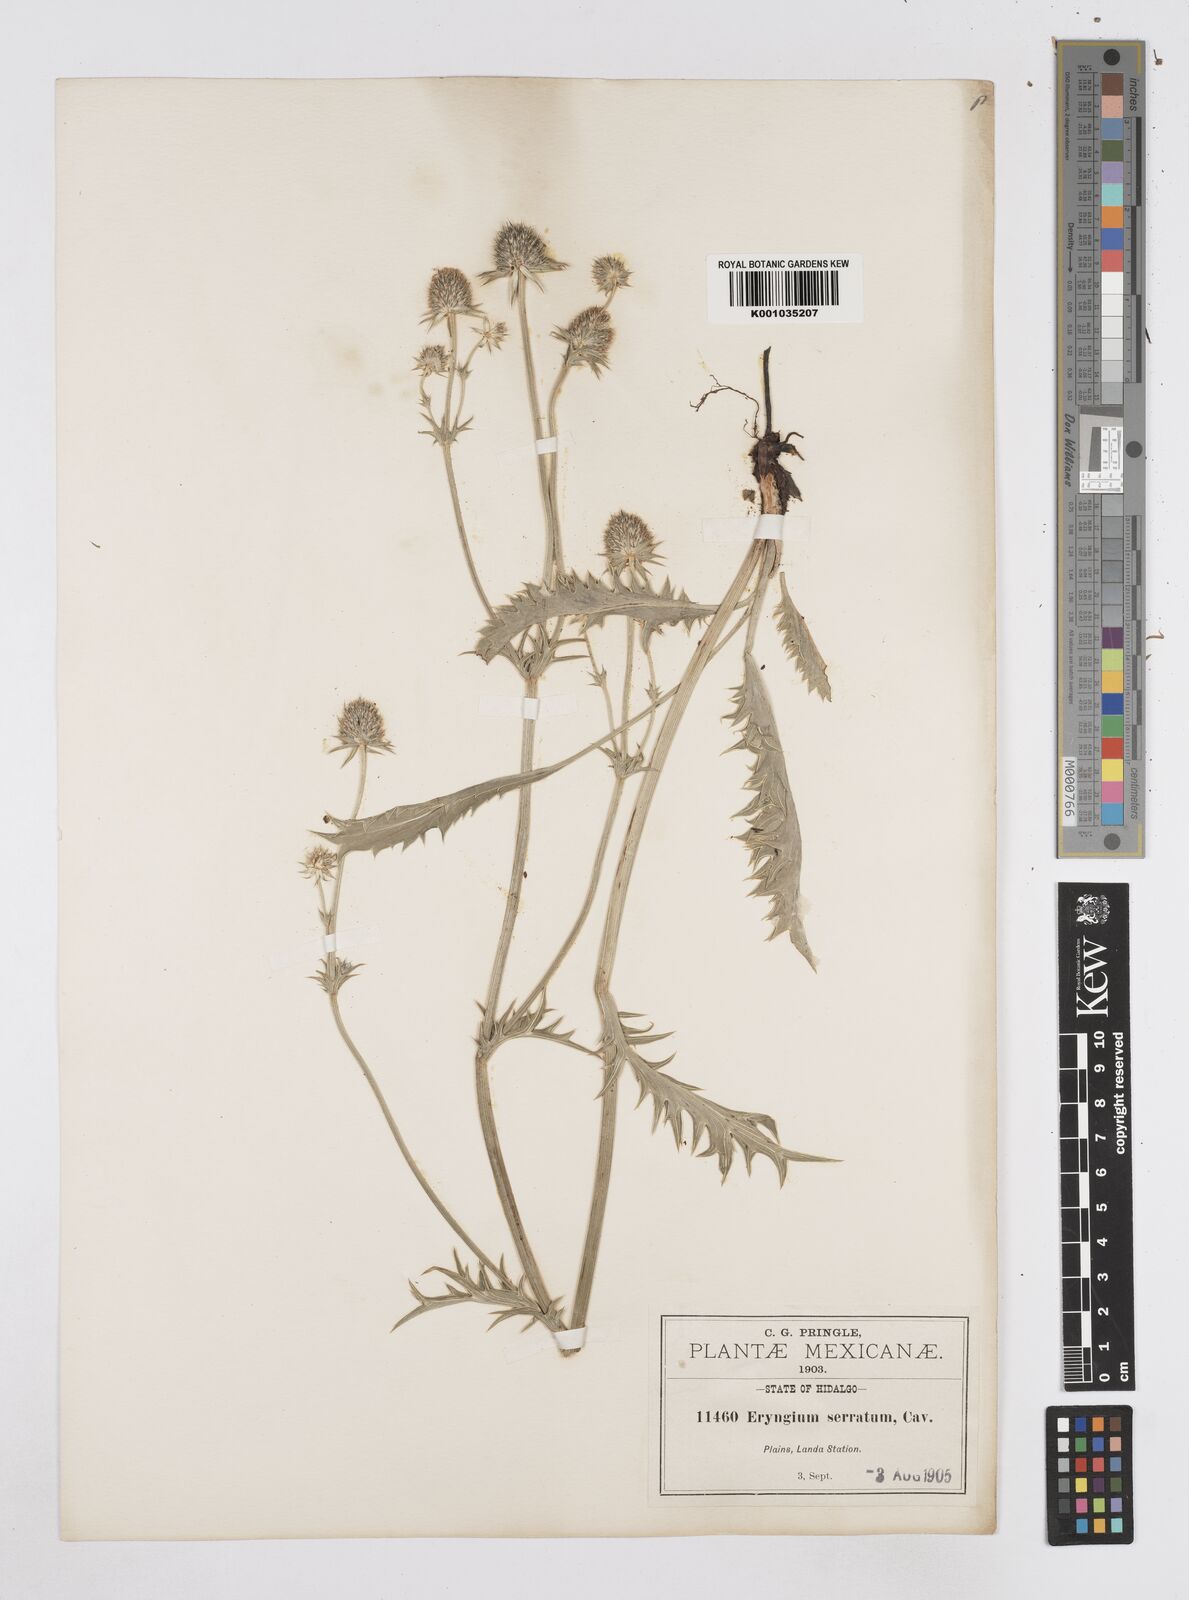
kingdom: Plantae
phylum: Tracheophyta
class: Magnoliopsida
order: Apiales
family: Apiaceae
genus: Eryngium
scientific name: Eryngium serratum
